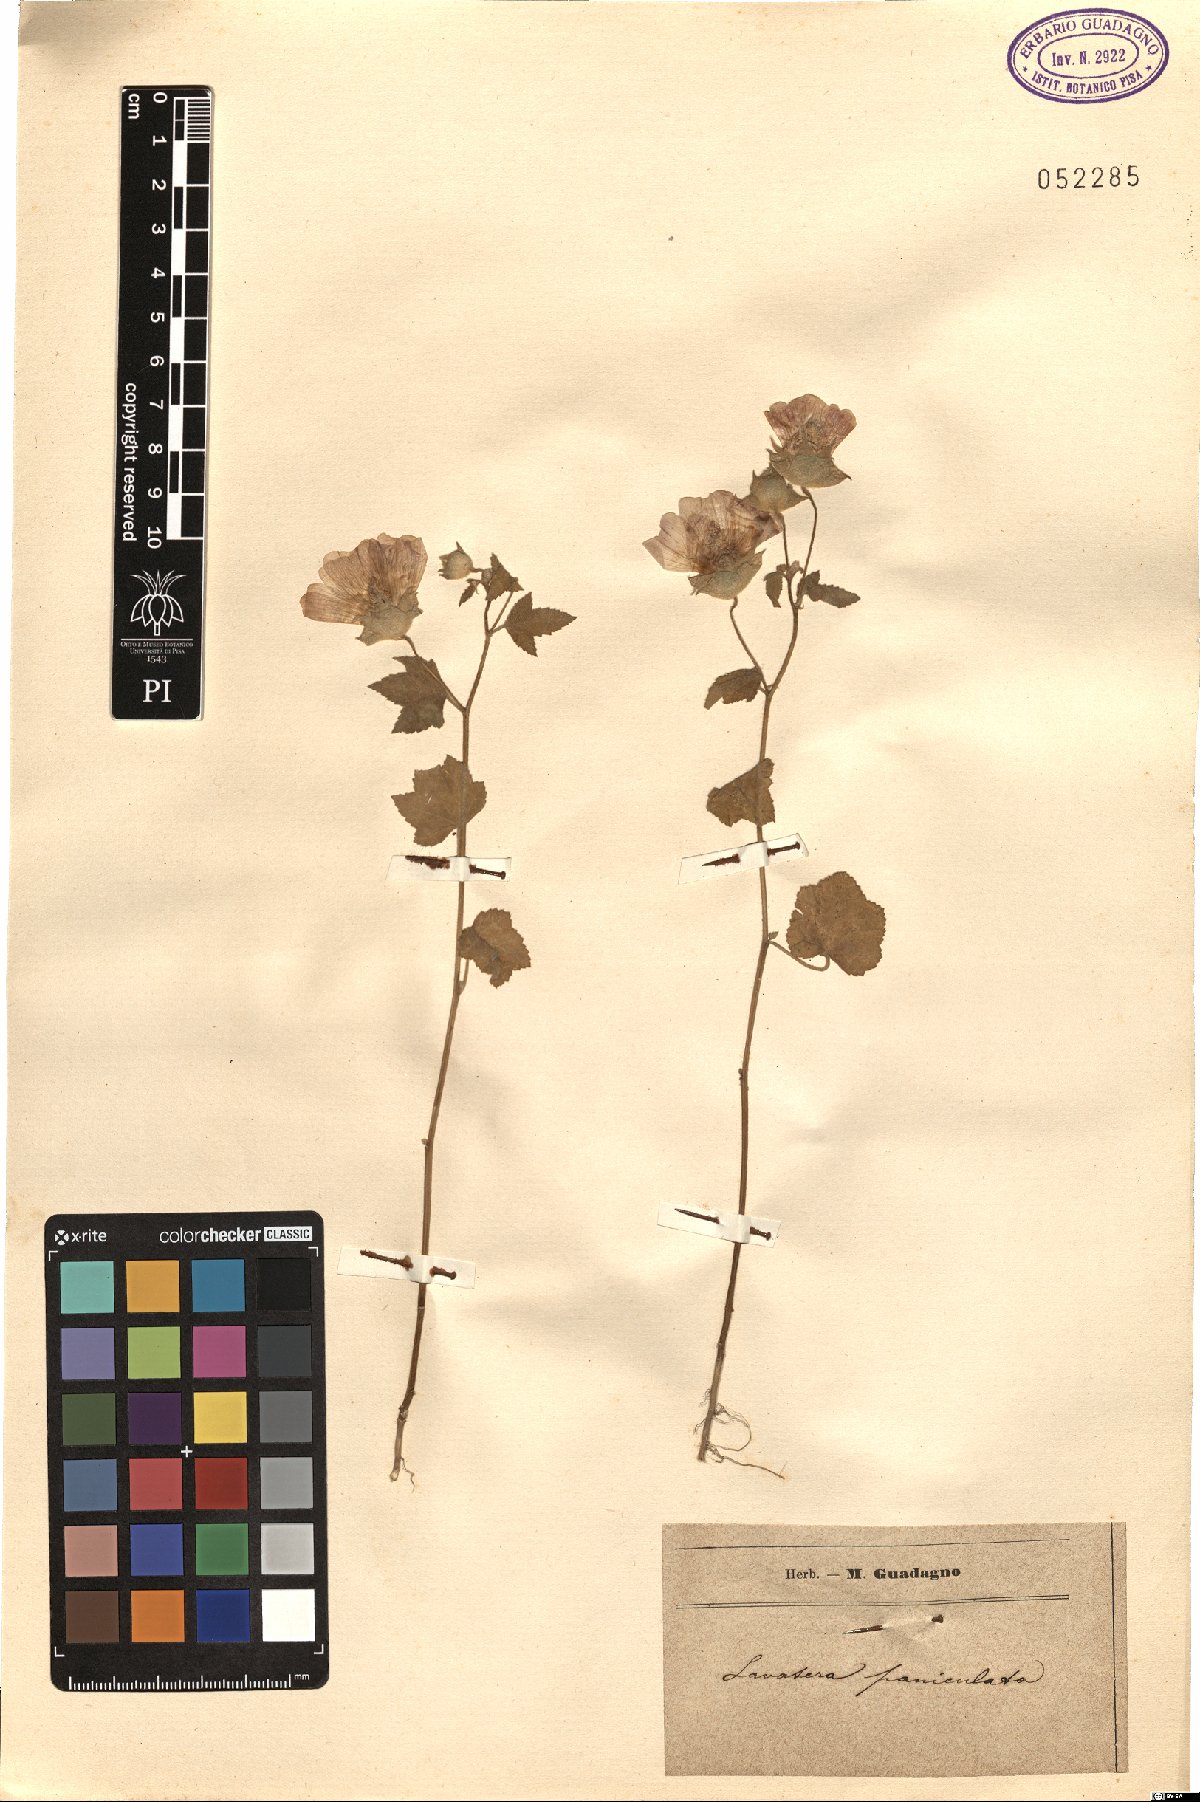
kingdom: Plantae
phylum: Tracheophyta
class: Magnoliopsida
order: Malvales
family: Malvaceae
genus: Malva
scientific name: Malva
